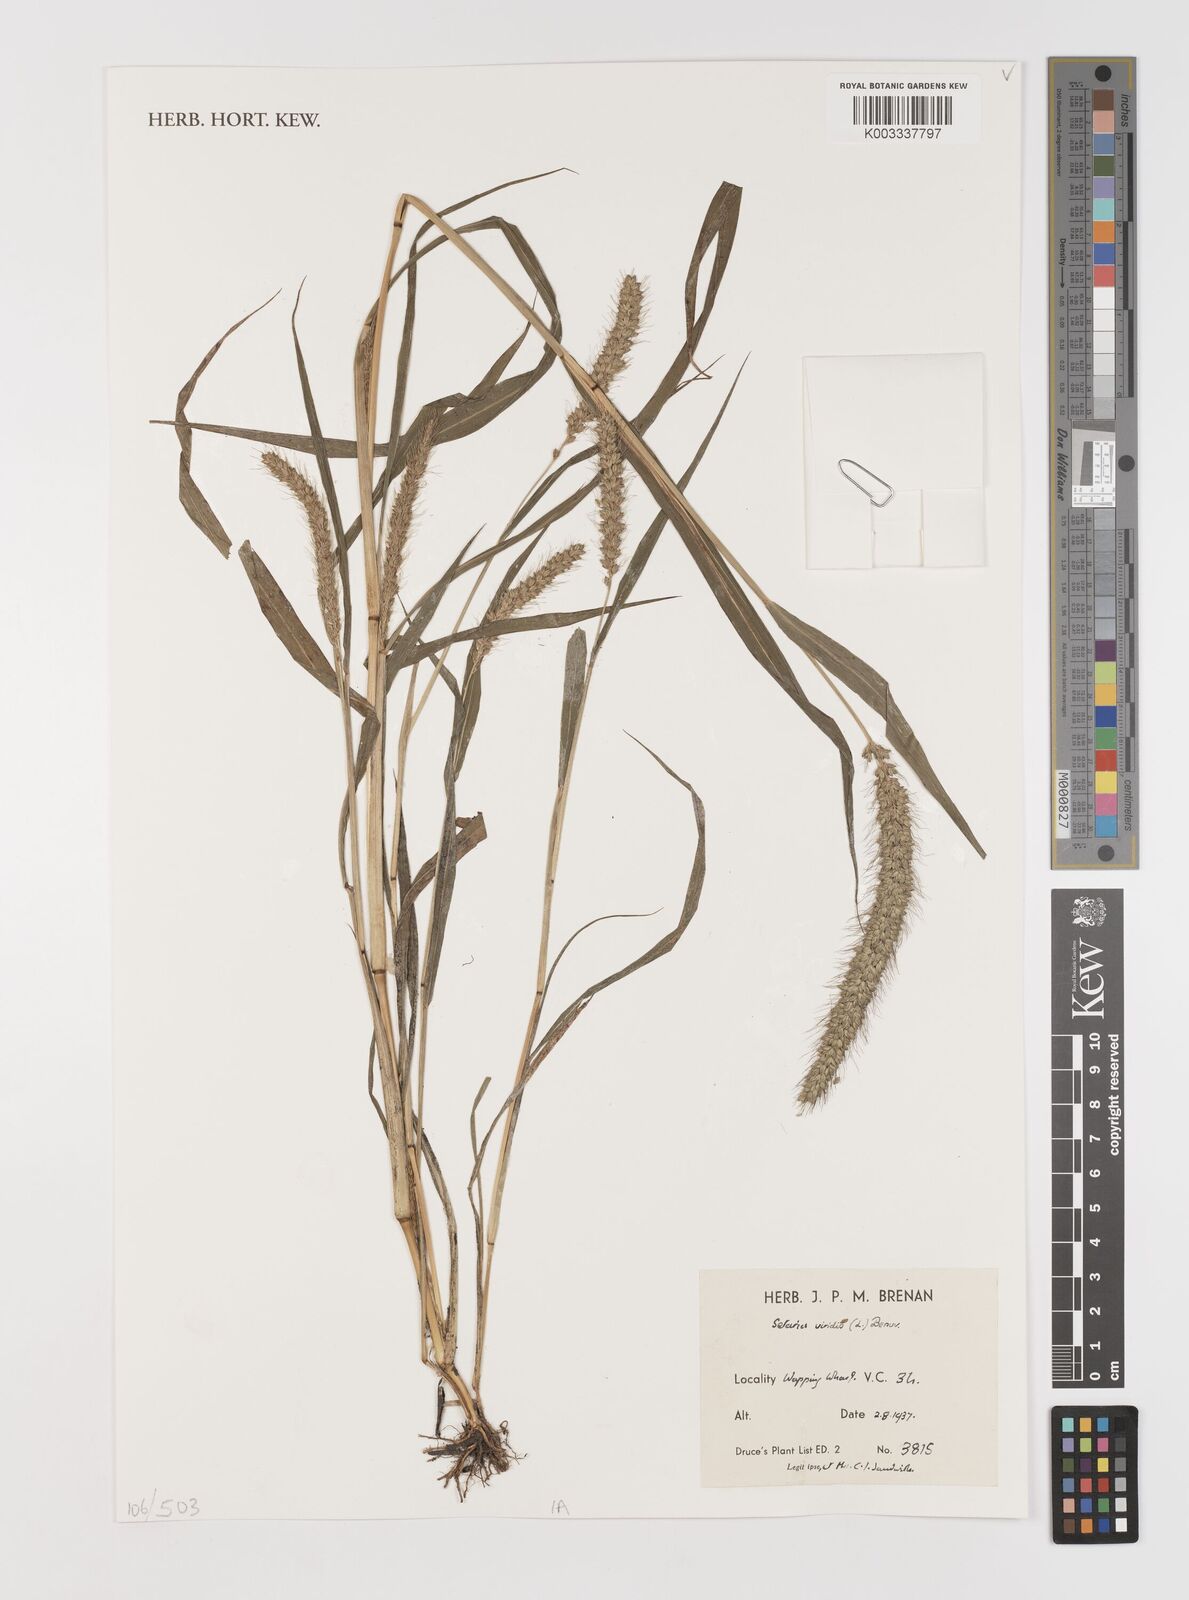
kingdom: Plantae
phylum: Tracheophyta
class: Liliopsida
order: Poales
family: Poaceae
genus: Setaria
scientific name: Setaria viridis
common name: Green bristlegrass
